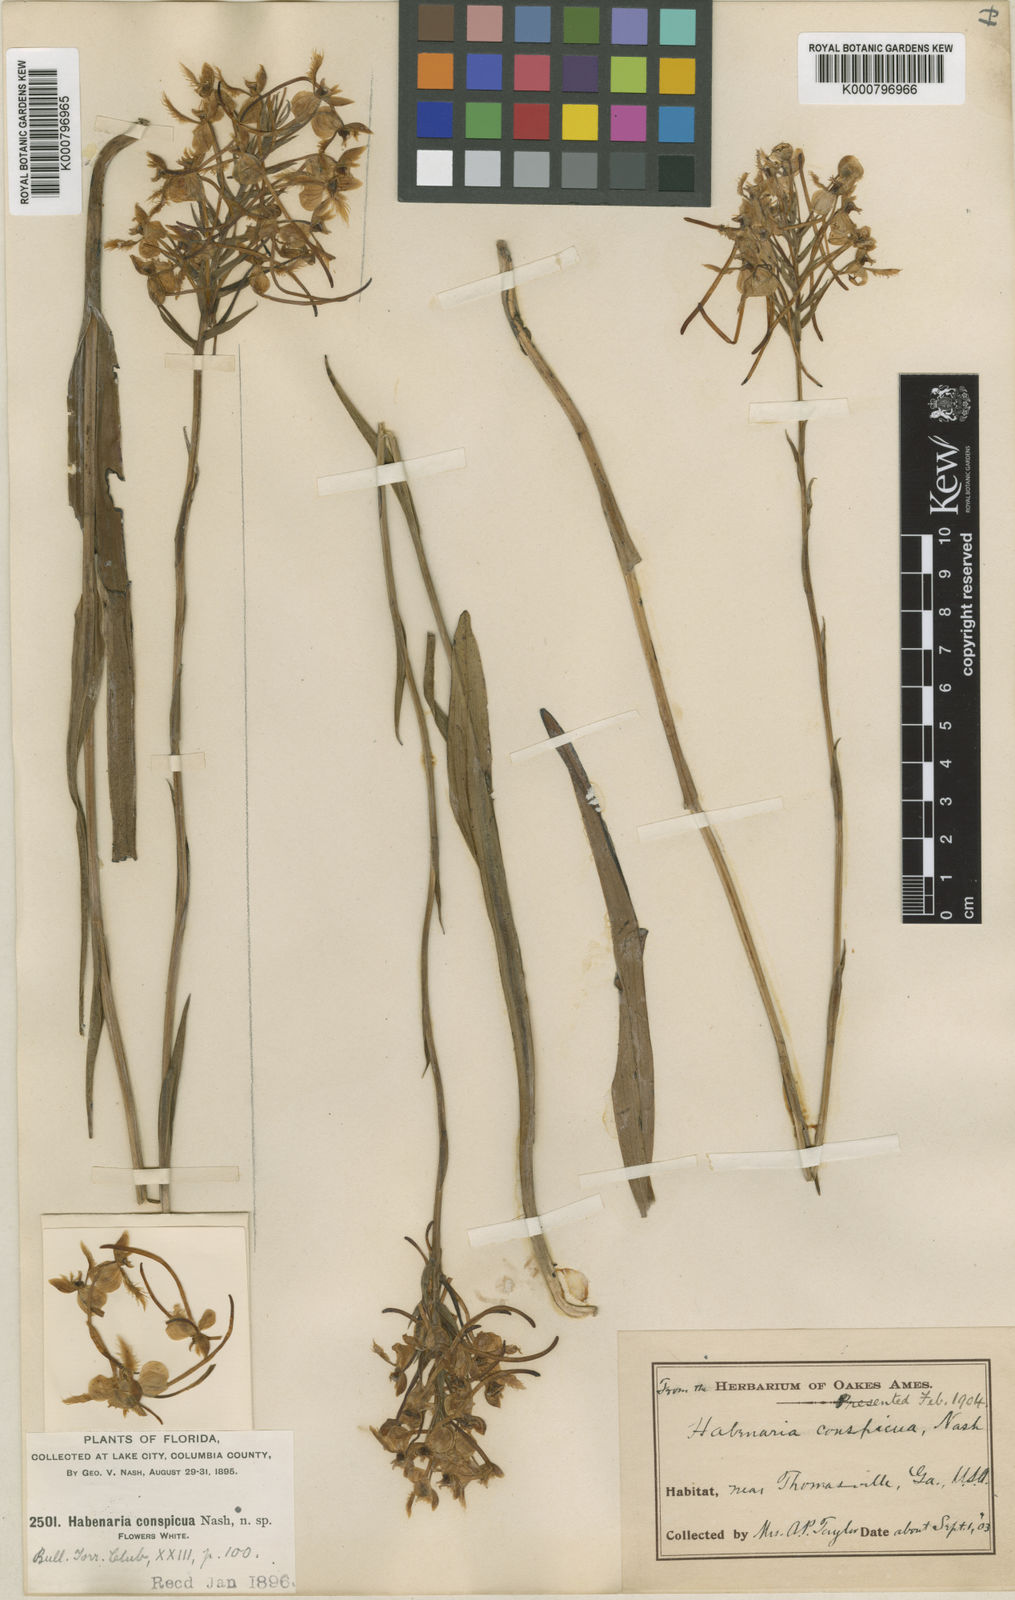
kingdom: Plantae
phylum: Tracheophyta
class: Liliopsida
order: Asparagales
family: Orchidaceae
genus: Platanthera
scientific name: Platanthera blephariglottis
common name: White fringed orchid
